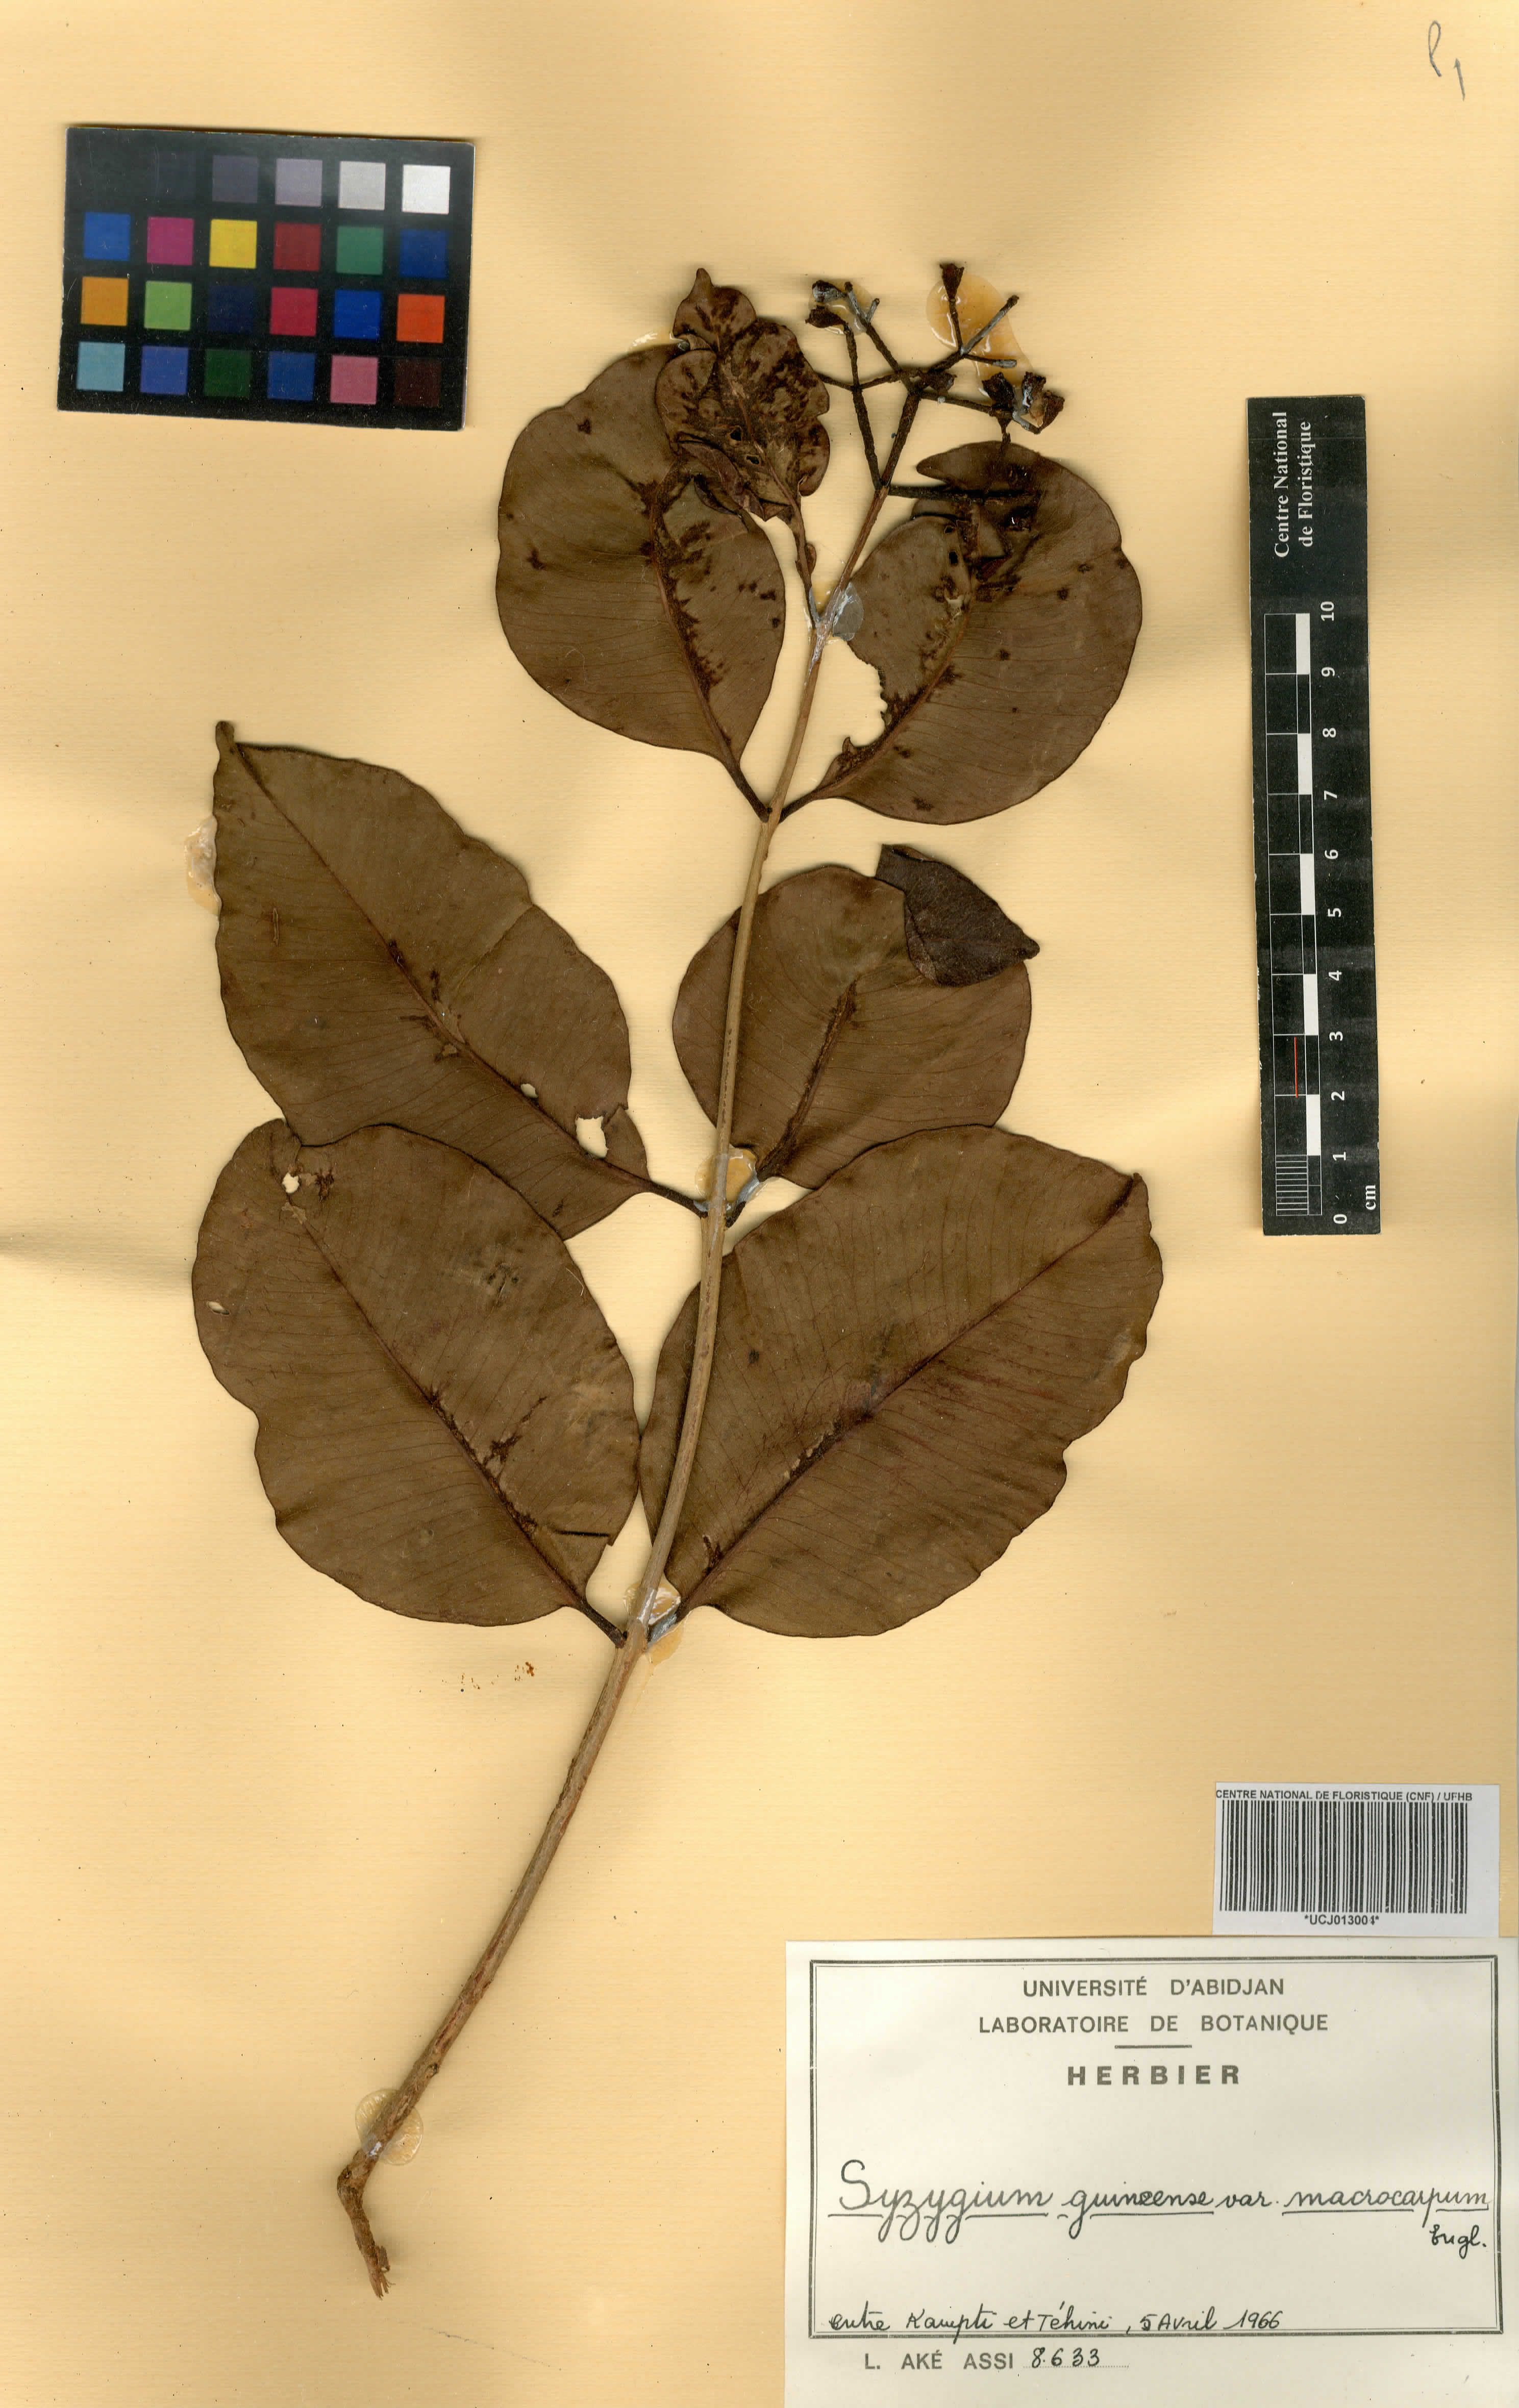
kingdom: Plantae
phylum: Tracheophyta
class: Magnoliopsida
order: Myrtales
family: Myrtaceae
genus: Syzygium
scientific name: Syzygium guineense
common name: Water-pear
